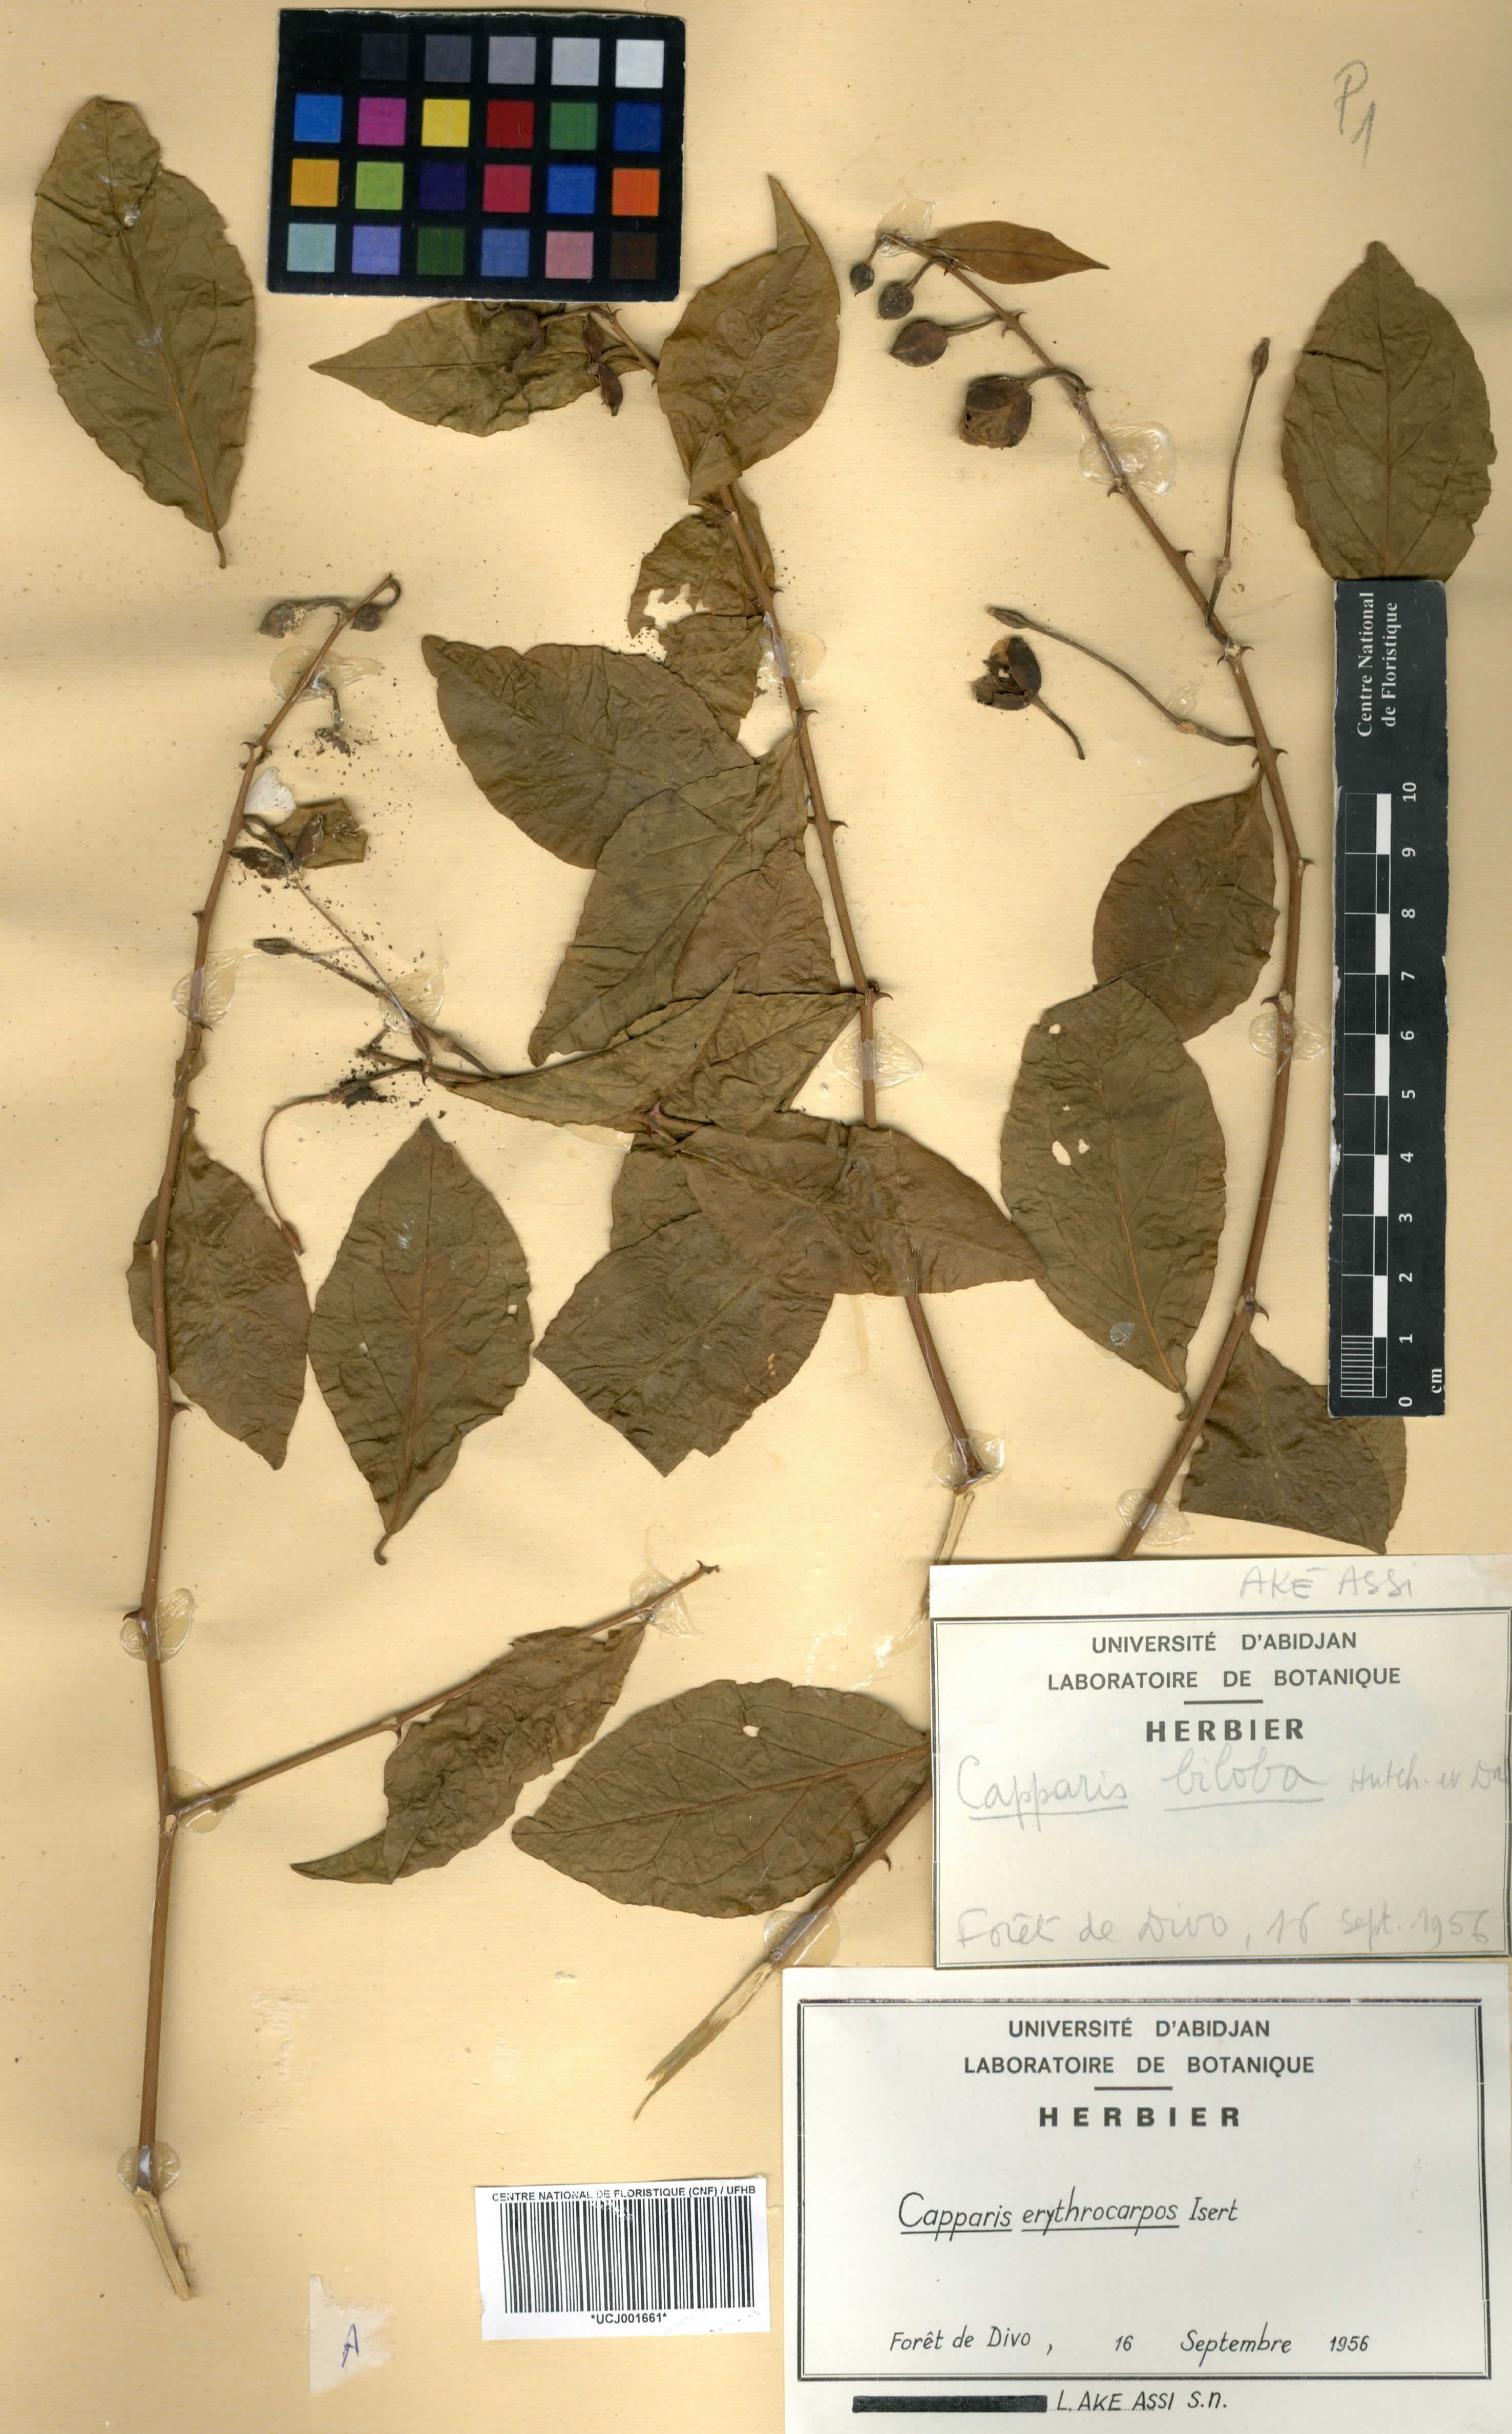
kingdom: Plantae
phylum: Tracheophyta
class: Magnoliopsida
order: Brassicales
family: Capparaceae
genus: Capparis
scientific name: Capparis erythrocarpos
